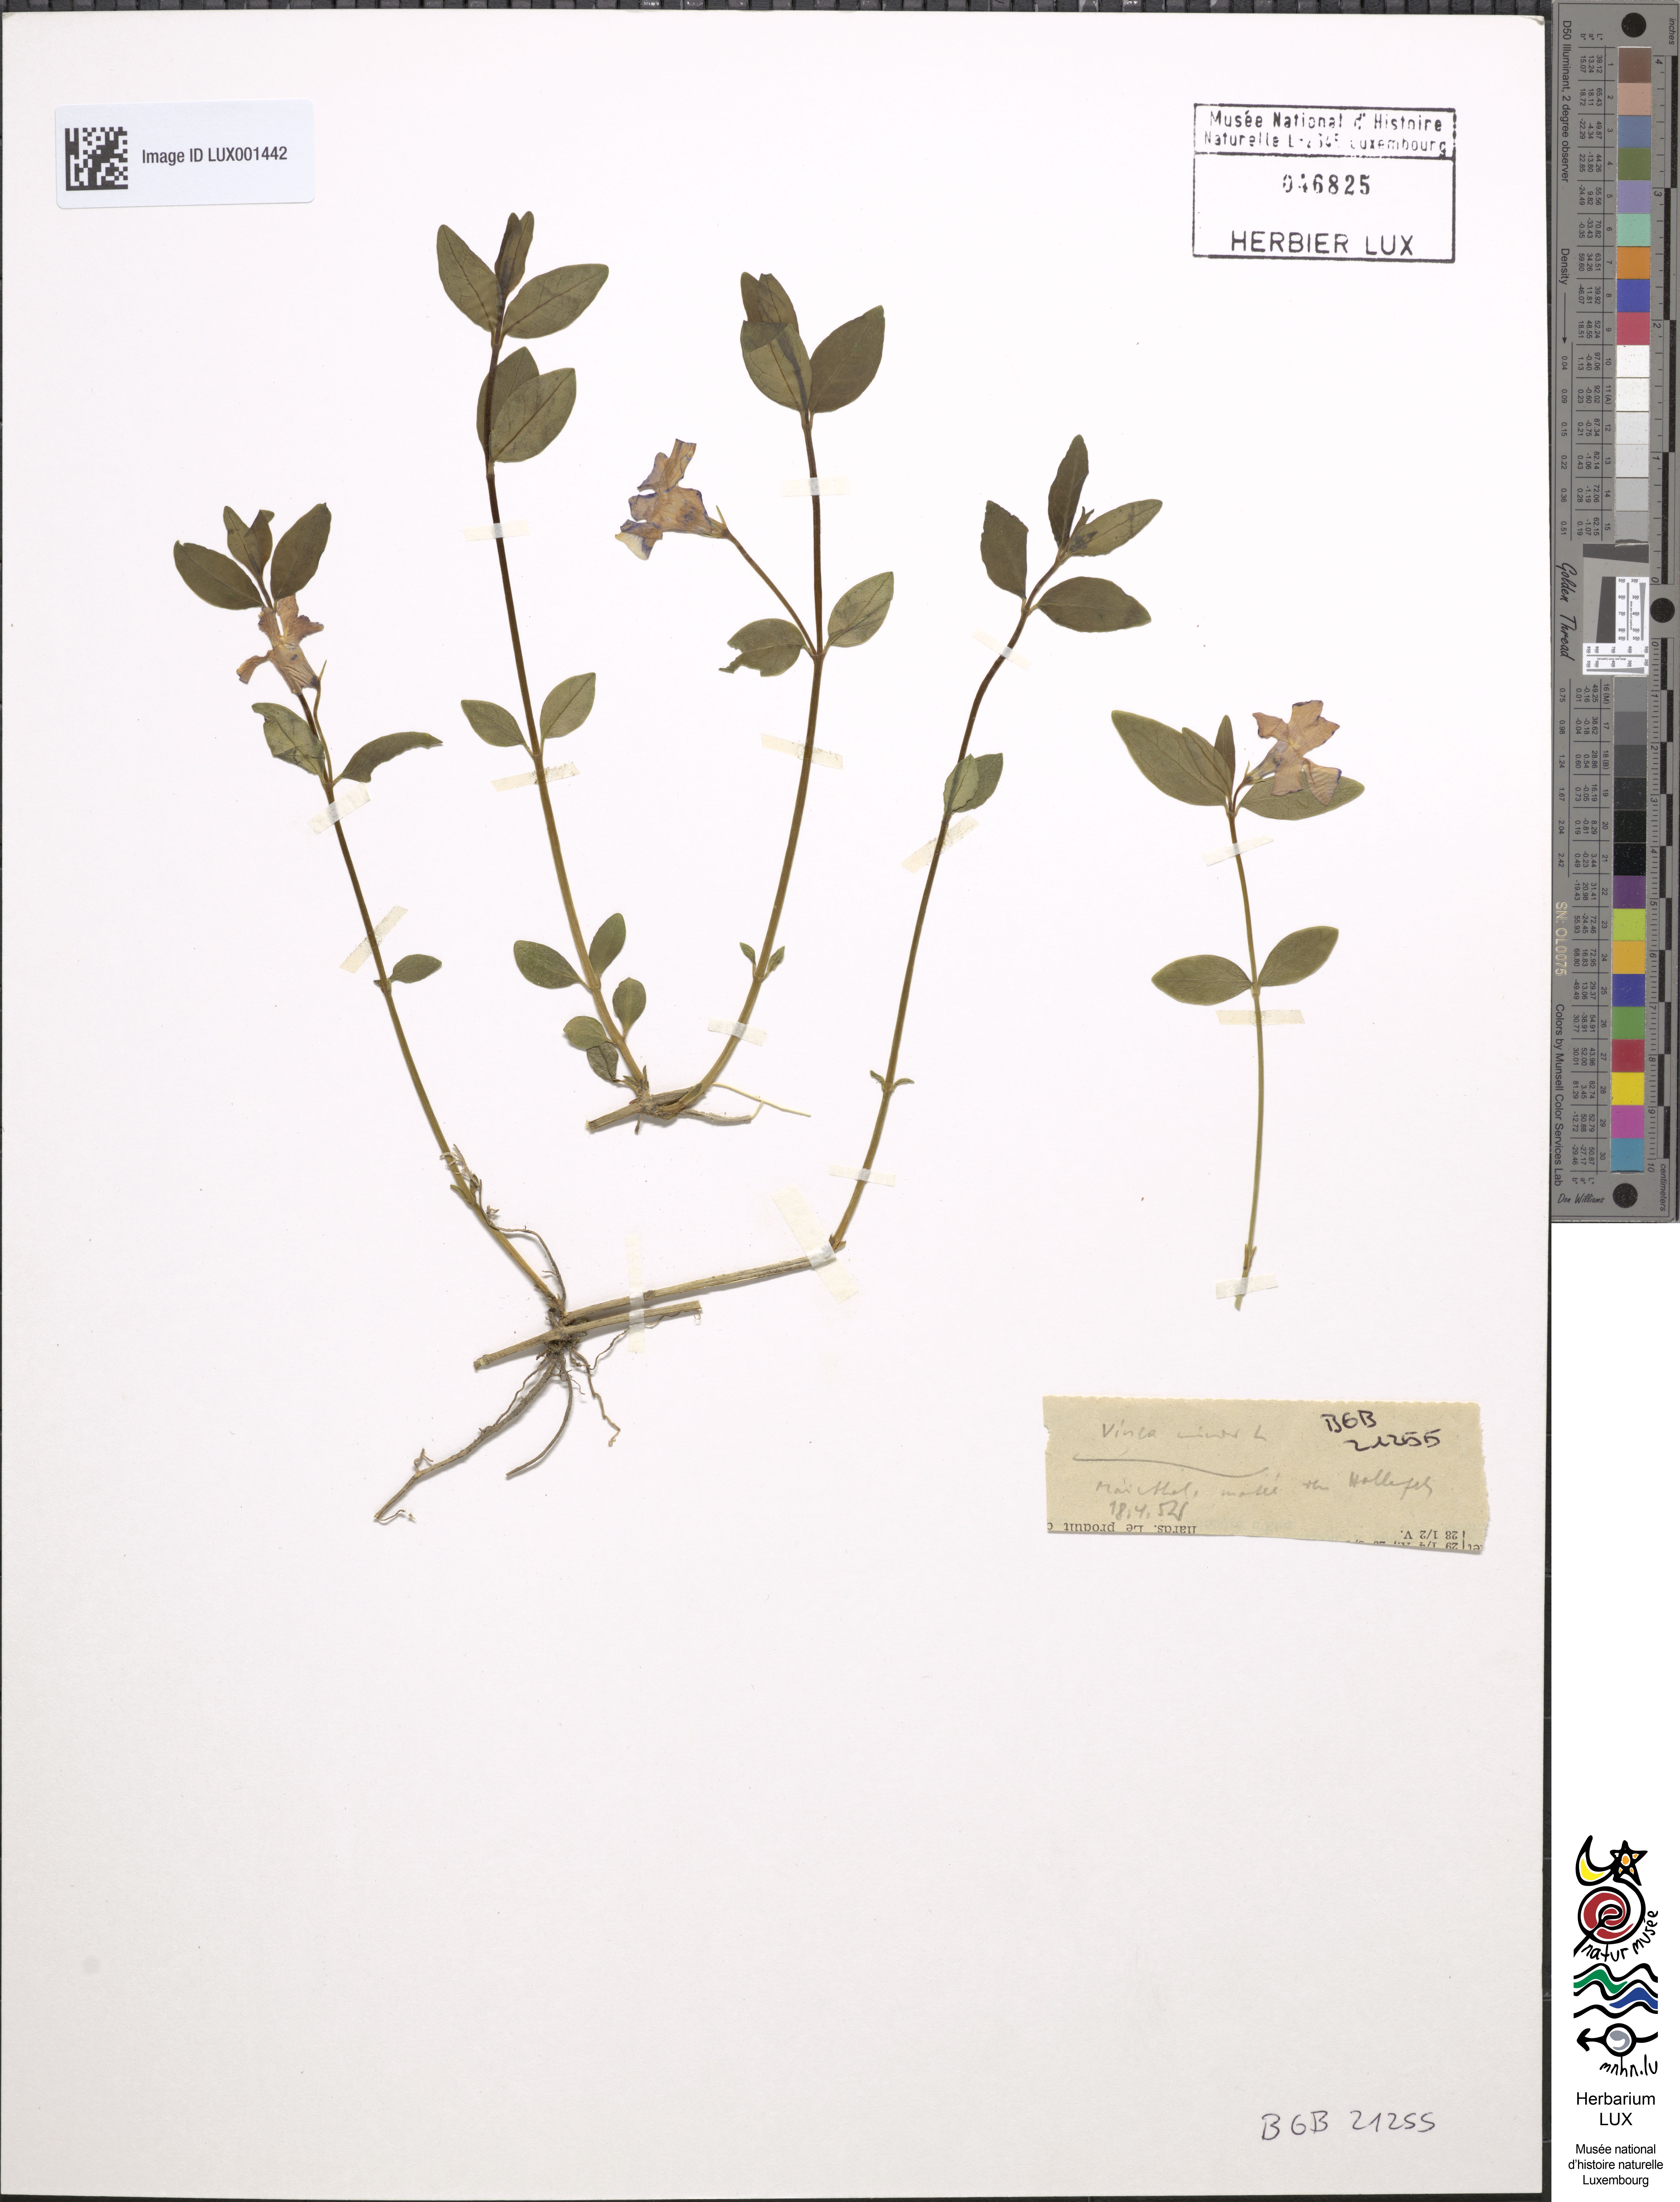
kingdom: Plantae
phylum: Tracheophyta
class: Magnoliopsida
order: Gentianales
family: Apocynaceae
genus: Vinca
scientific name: Vinca minor
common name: Lesser periwinkle
